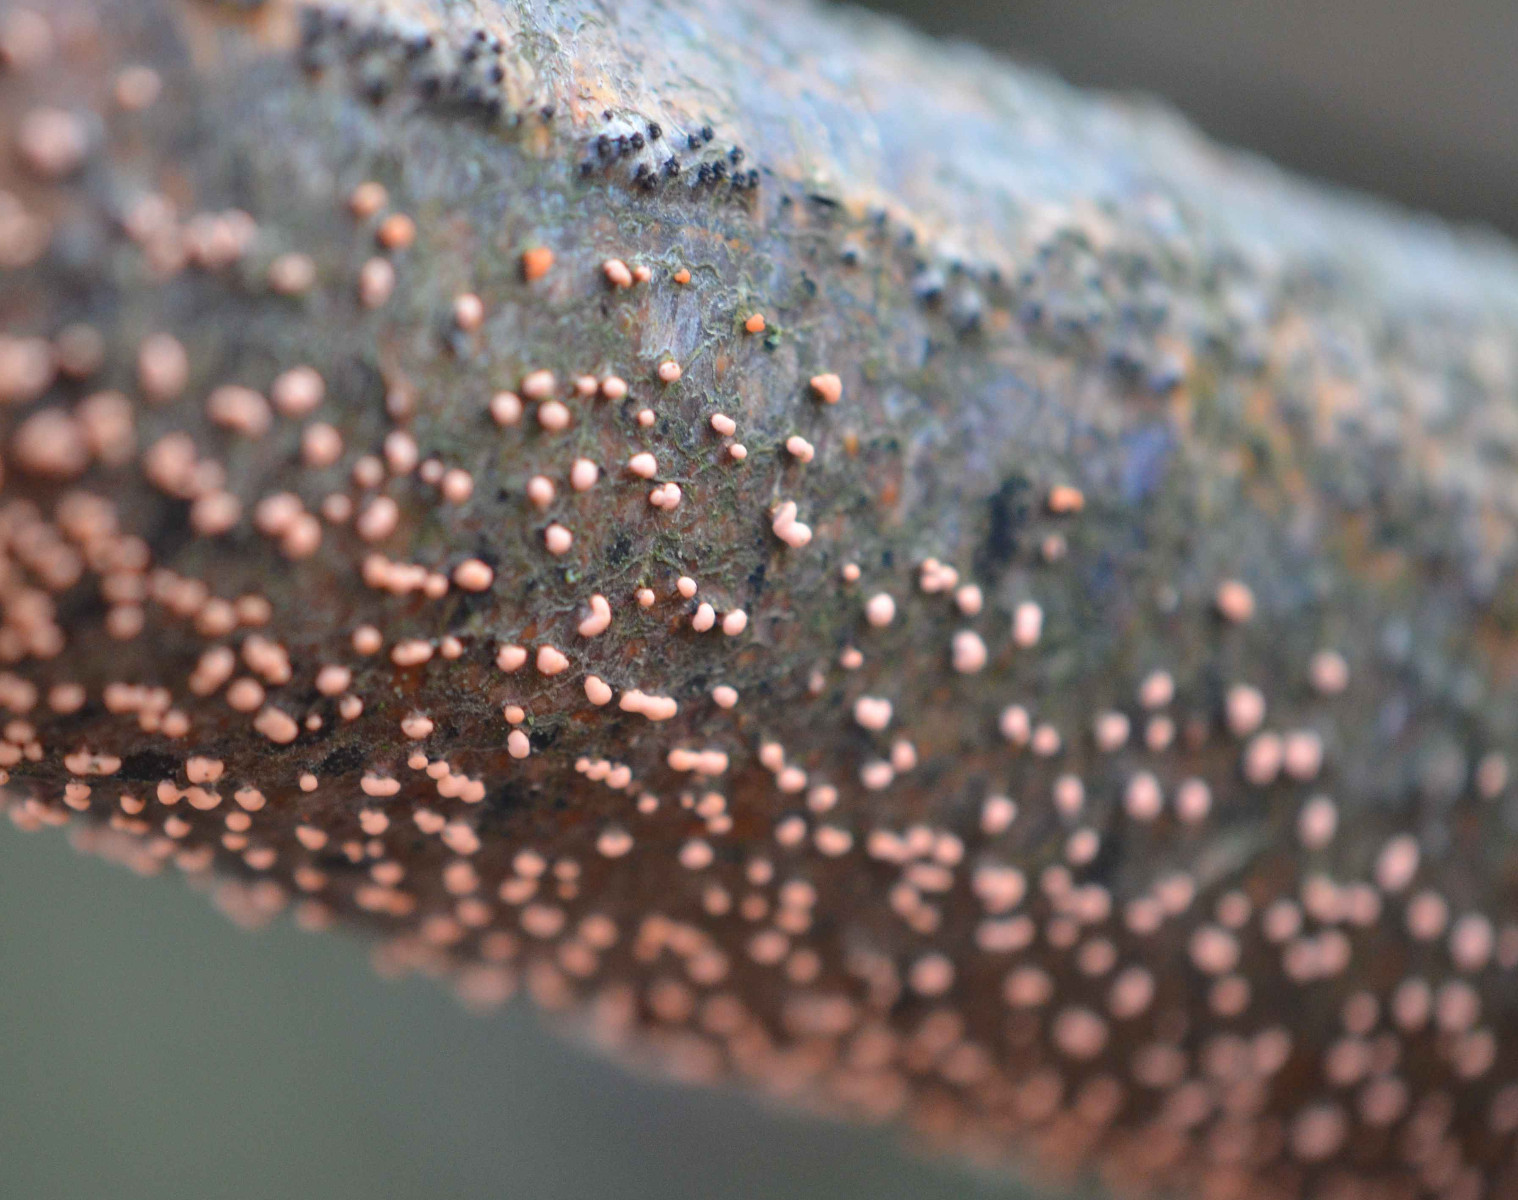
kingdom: Fungi
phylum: Ascomycota
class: Sordariomycetes
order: Hypocreales
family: Nectriaceae
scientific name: Nectriaceae
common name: cinnobersvampfamilien
